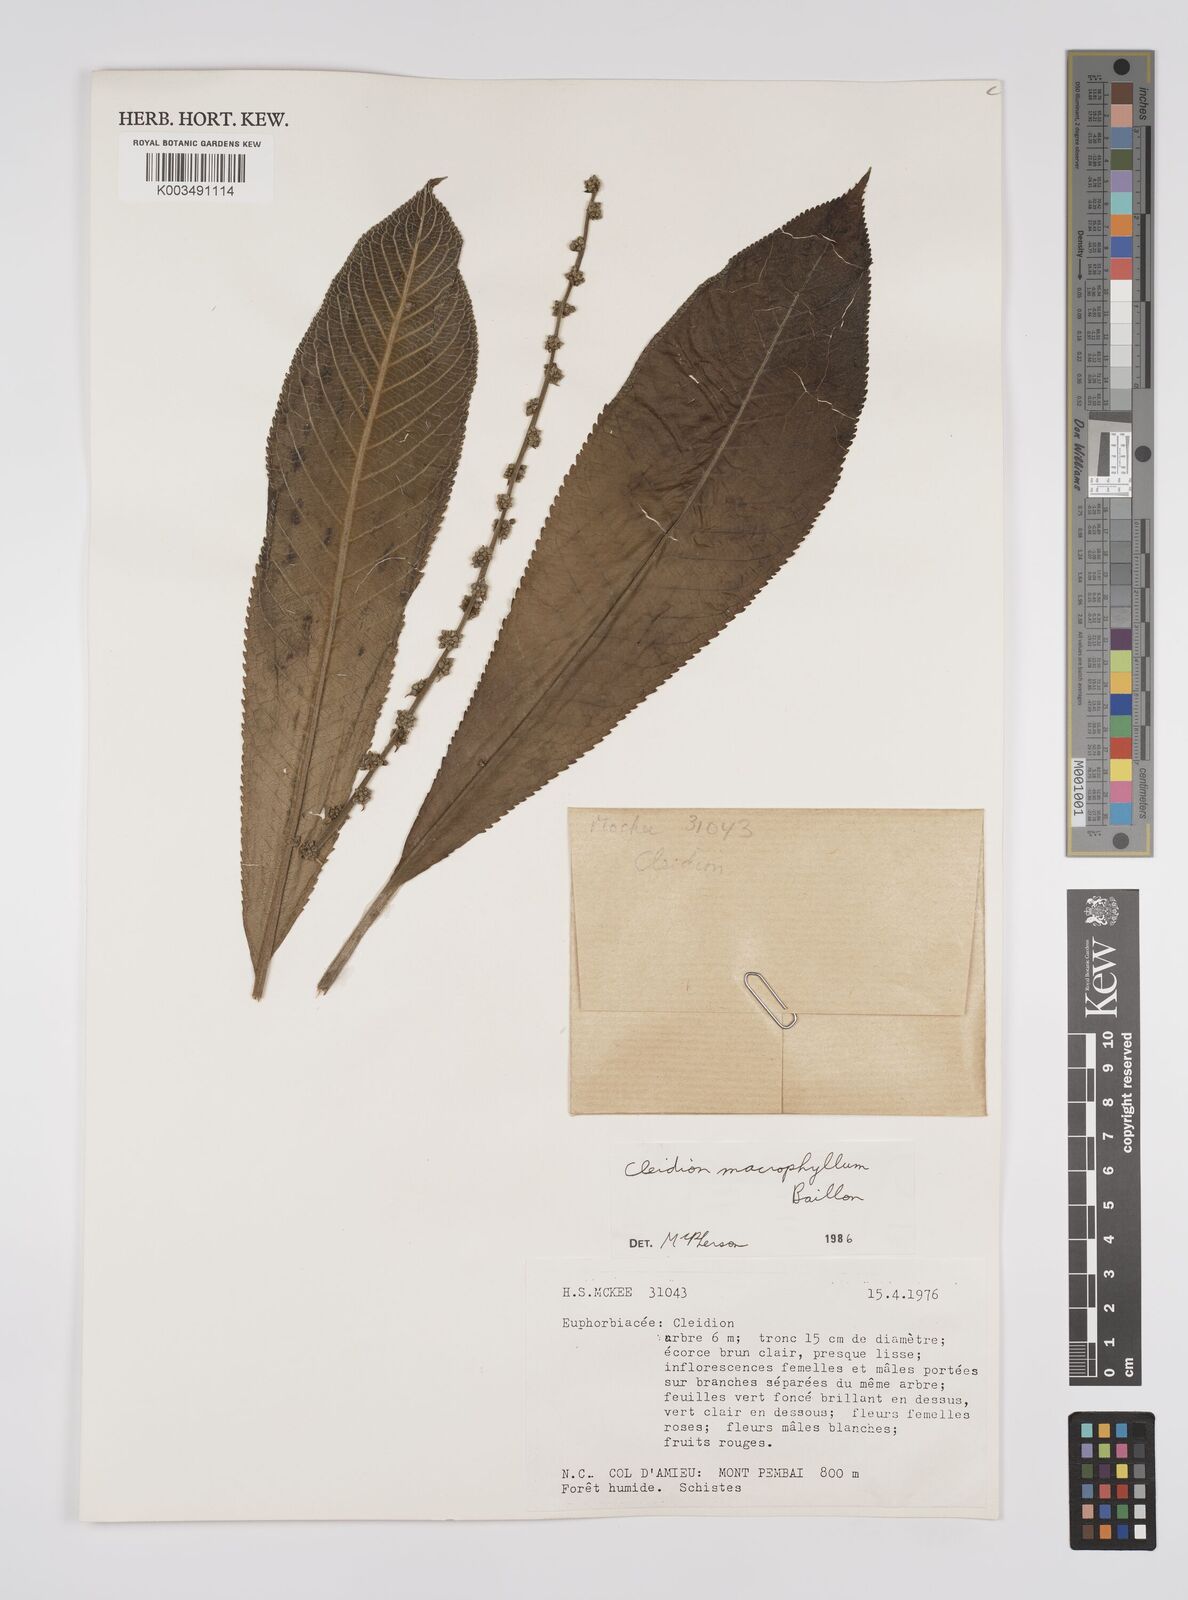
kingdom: Plantae
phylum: Tracheophyta
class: Magnoliopsida
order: Malpighiales
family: Euphorbiaceae
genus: Cleidion
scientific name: Cleidion macrophyllum
